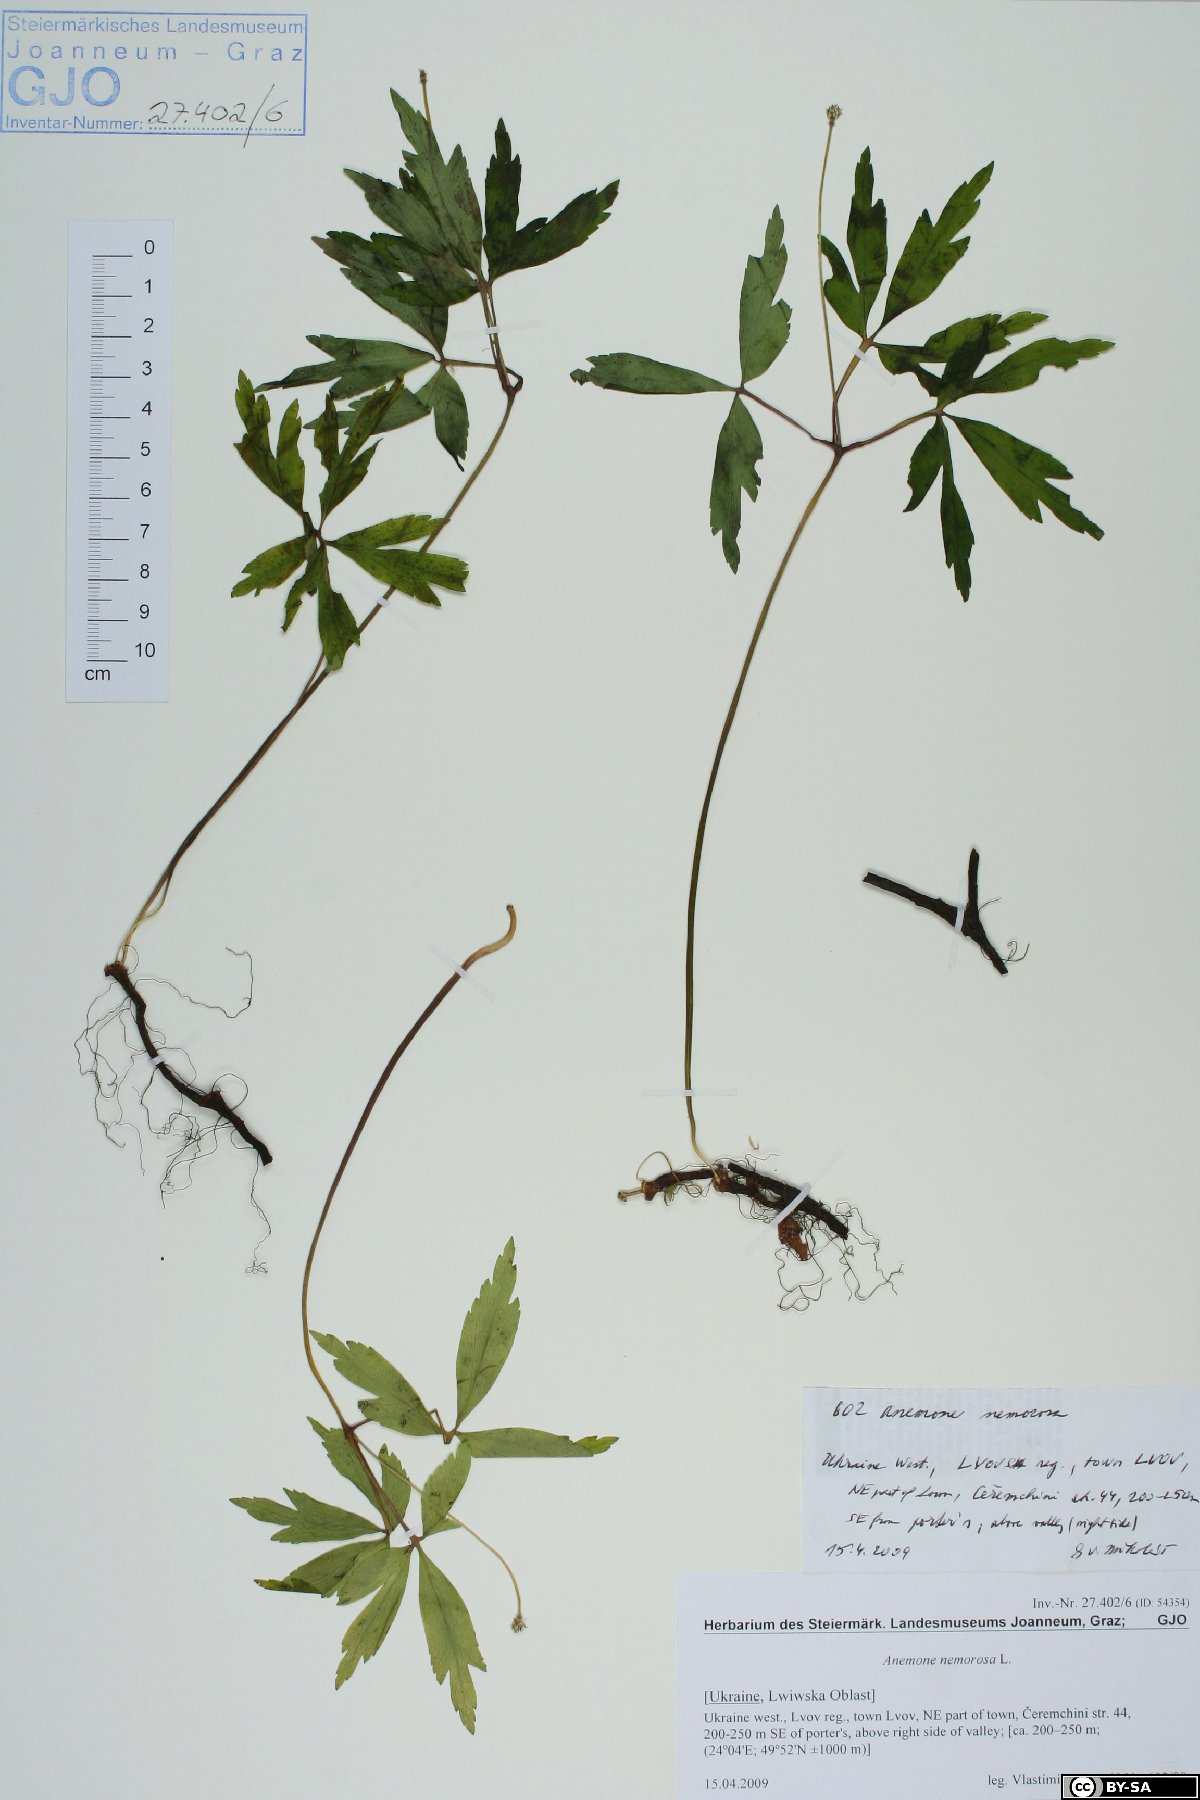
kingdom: Plantae
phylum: Tracheophyta
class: Magnoliopsida
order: Ranunculales
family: Ranunculaceae
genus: Anemone
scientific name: Anemone nemorosa
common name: Wood anemone
